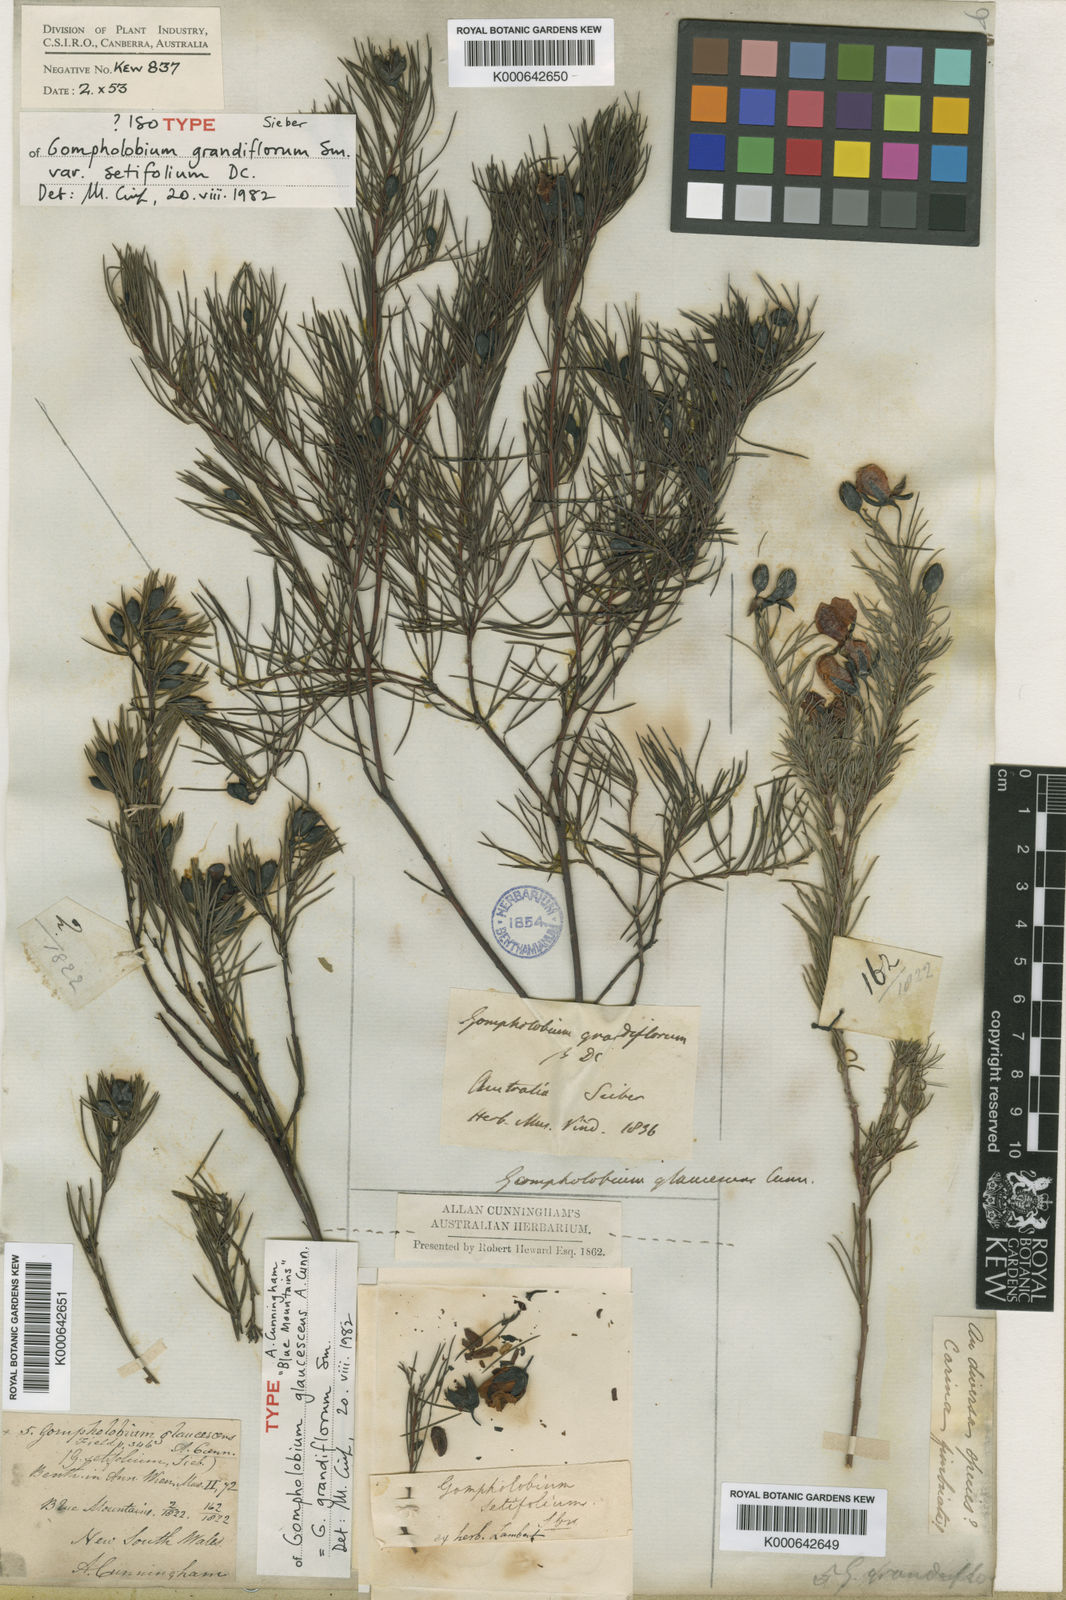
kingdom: Plantae
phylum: Tracheophyta
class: Magnoliopsida
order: Fabales
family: Fabaceae
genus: Gompholobium
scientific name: Gompholobium grandiflorum
